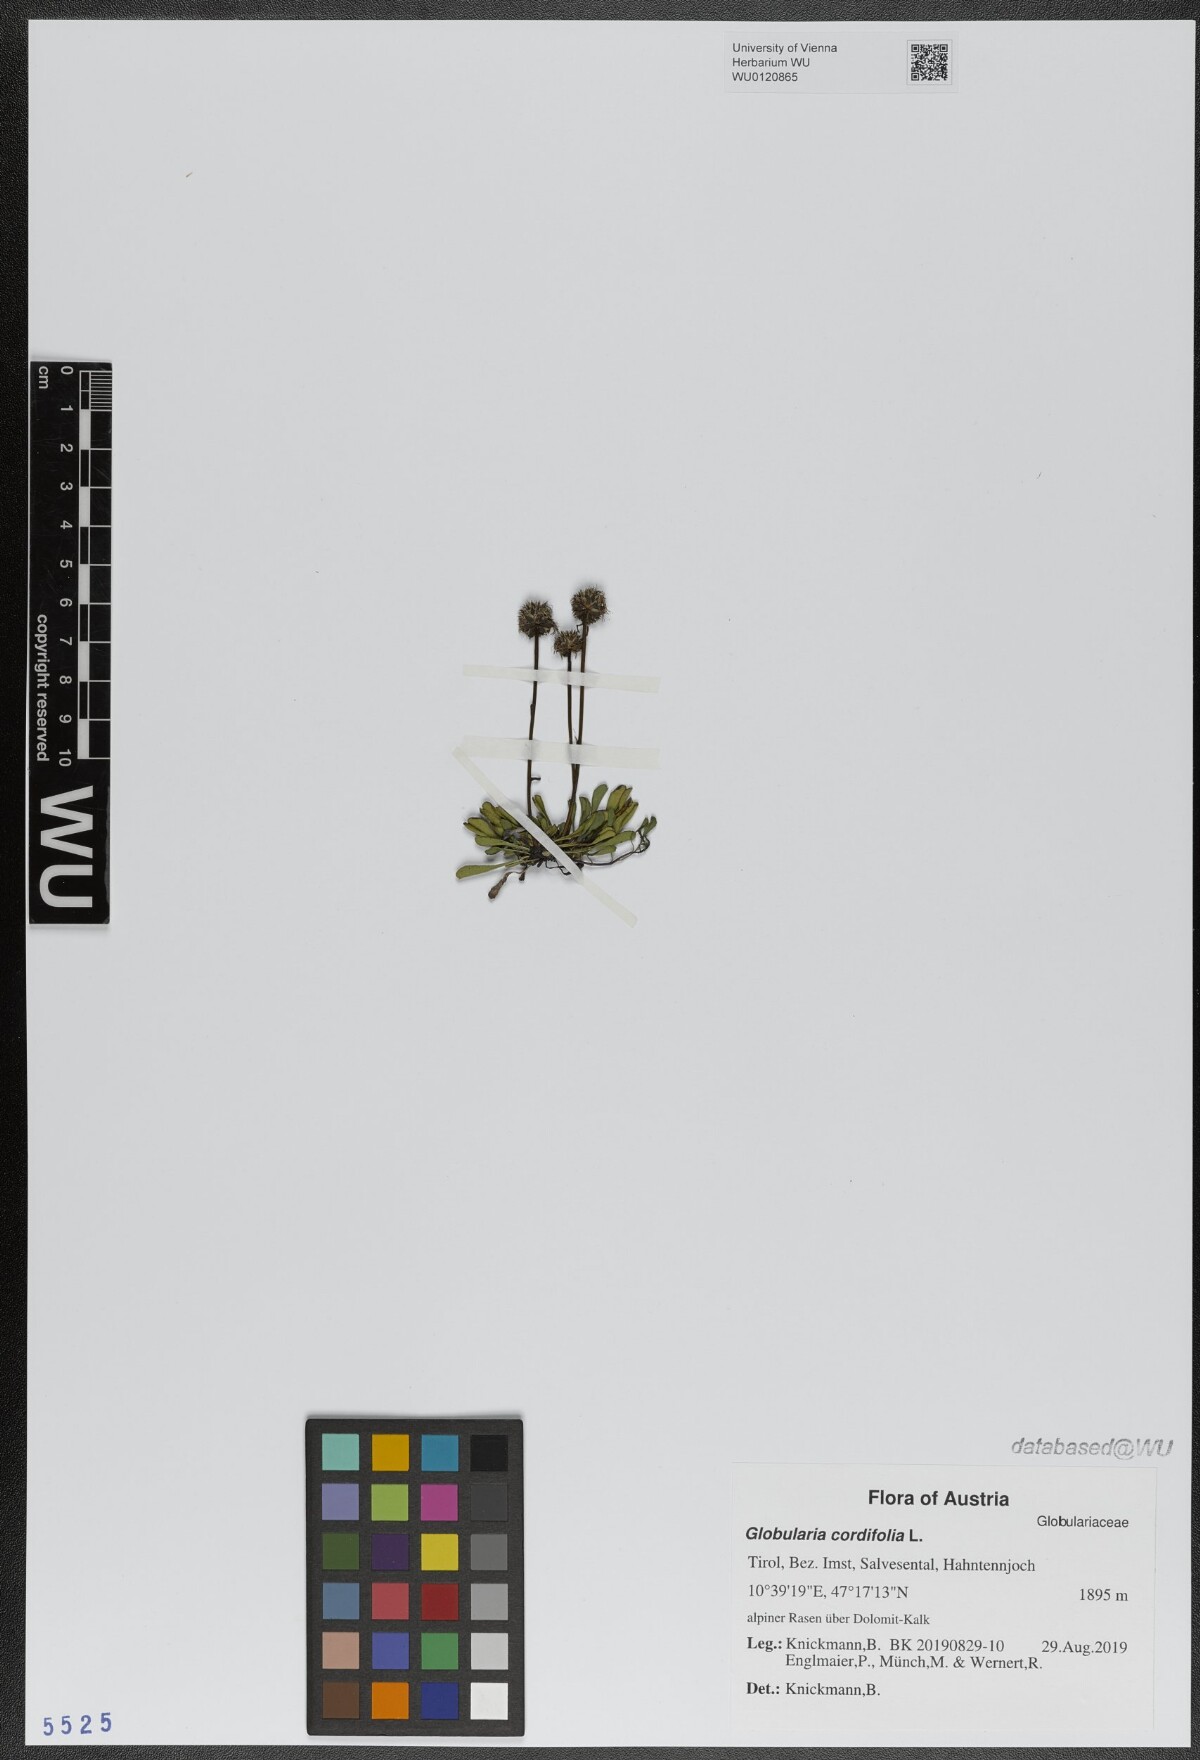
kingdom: Plantae
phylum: Tracheophyta
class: Magnoliopsida
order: Lamiales
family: Plantaginaceae
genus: Globularia
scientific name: Globularia cordifolia
